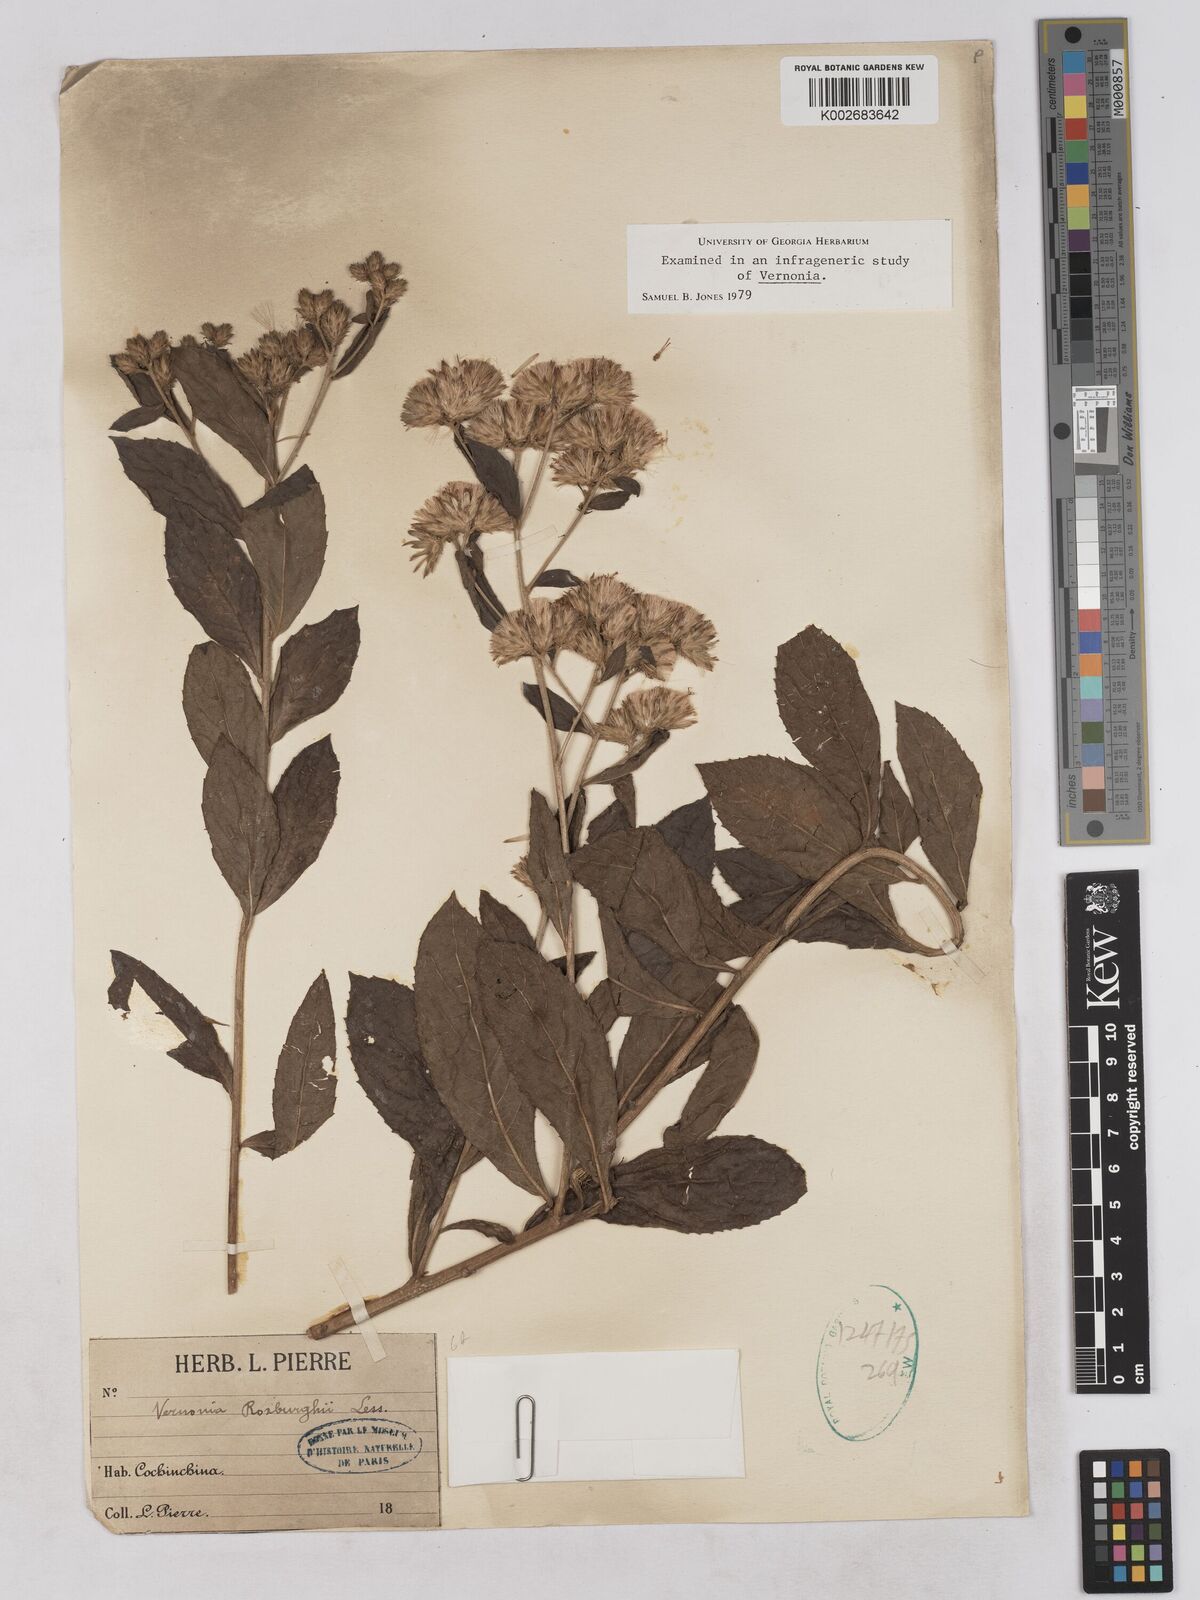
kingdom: Plantae
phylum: Tracheophyta
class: Magnoliopsida
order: Asterales
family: Asteraceae
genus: Acilepis
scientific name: Acilepis aspera
